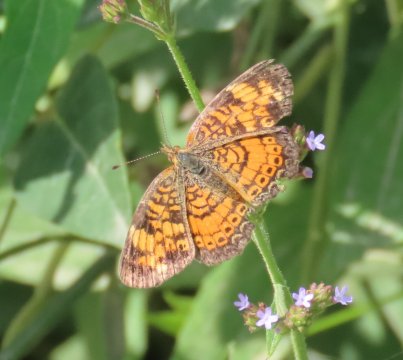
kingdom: Animalia
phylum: Arthropoda
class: Insecta
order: Lepidoptera
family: Nymphalidae
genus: Phyciodes
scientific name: Phyciodes tharos
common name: Pearl Crescent
